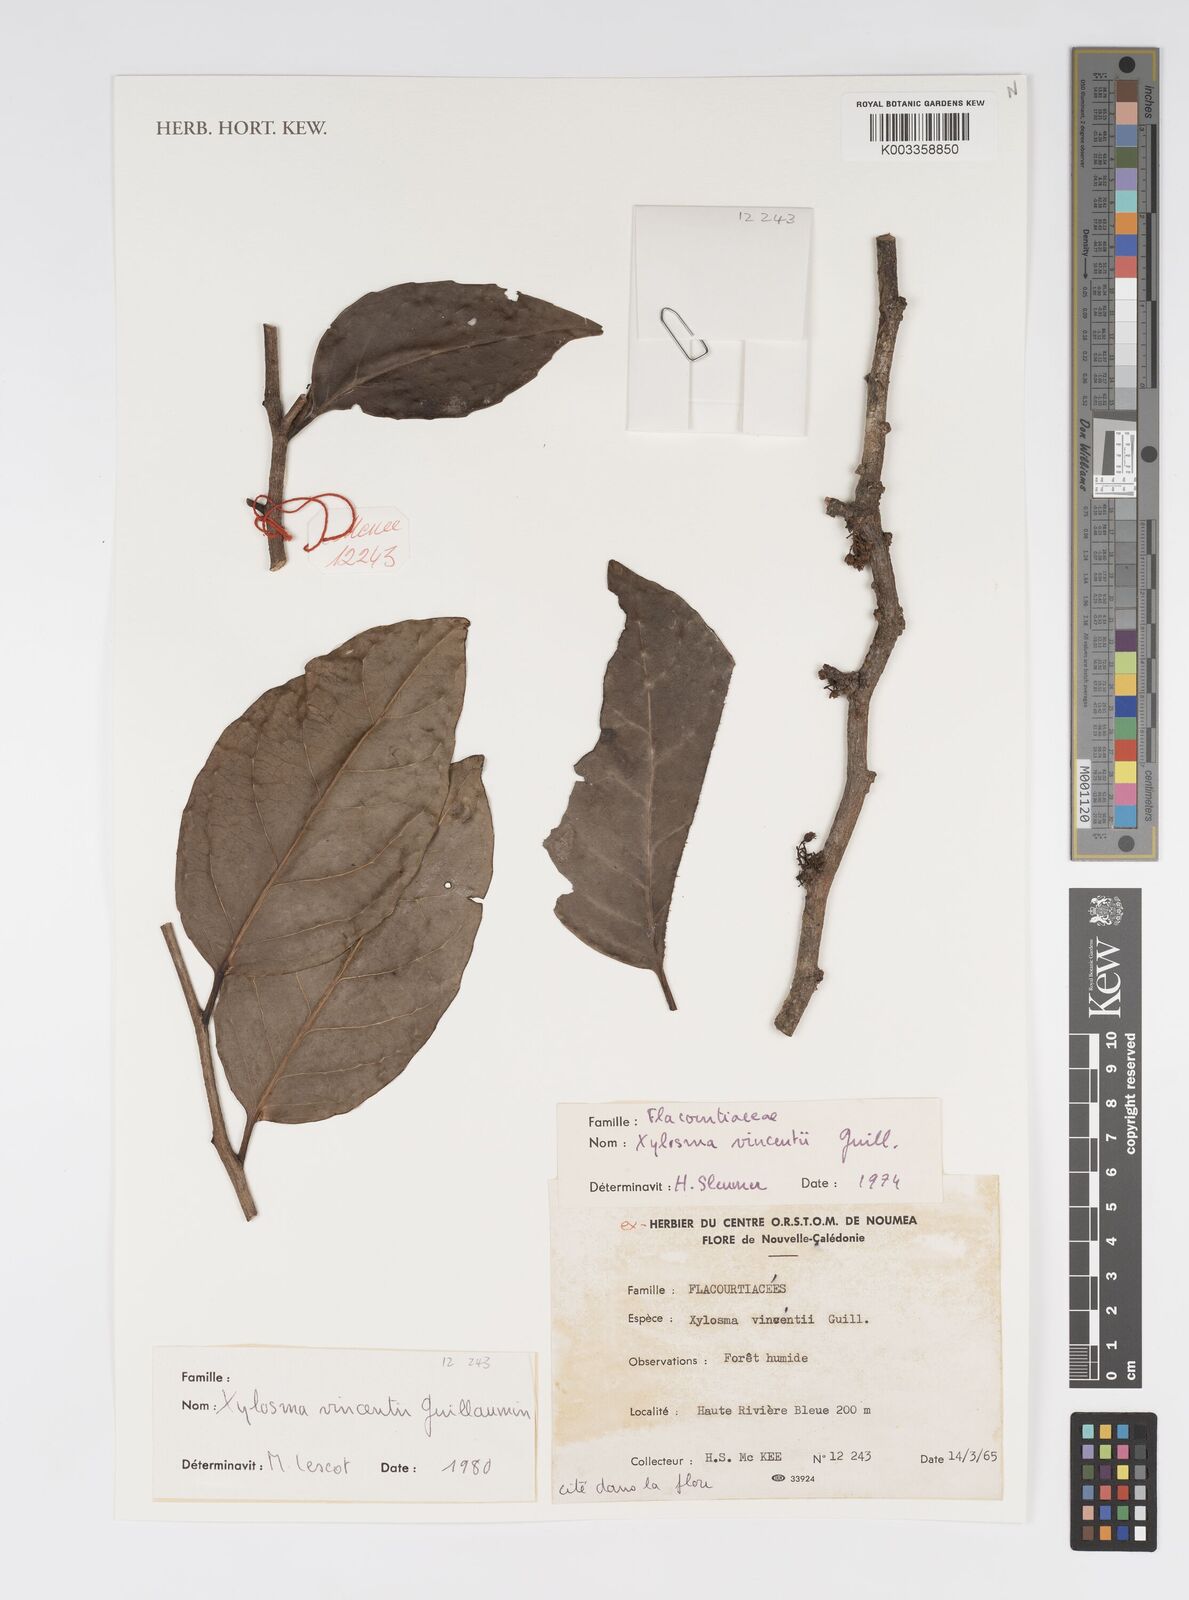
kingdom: Plantae
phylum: Tracheophyta
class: Magnoliopsida
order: Malpighiales
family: Salicaceae
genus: Xylosma
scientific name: Xylosma vincentii
